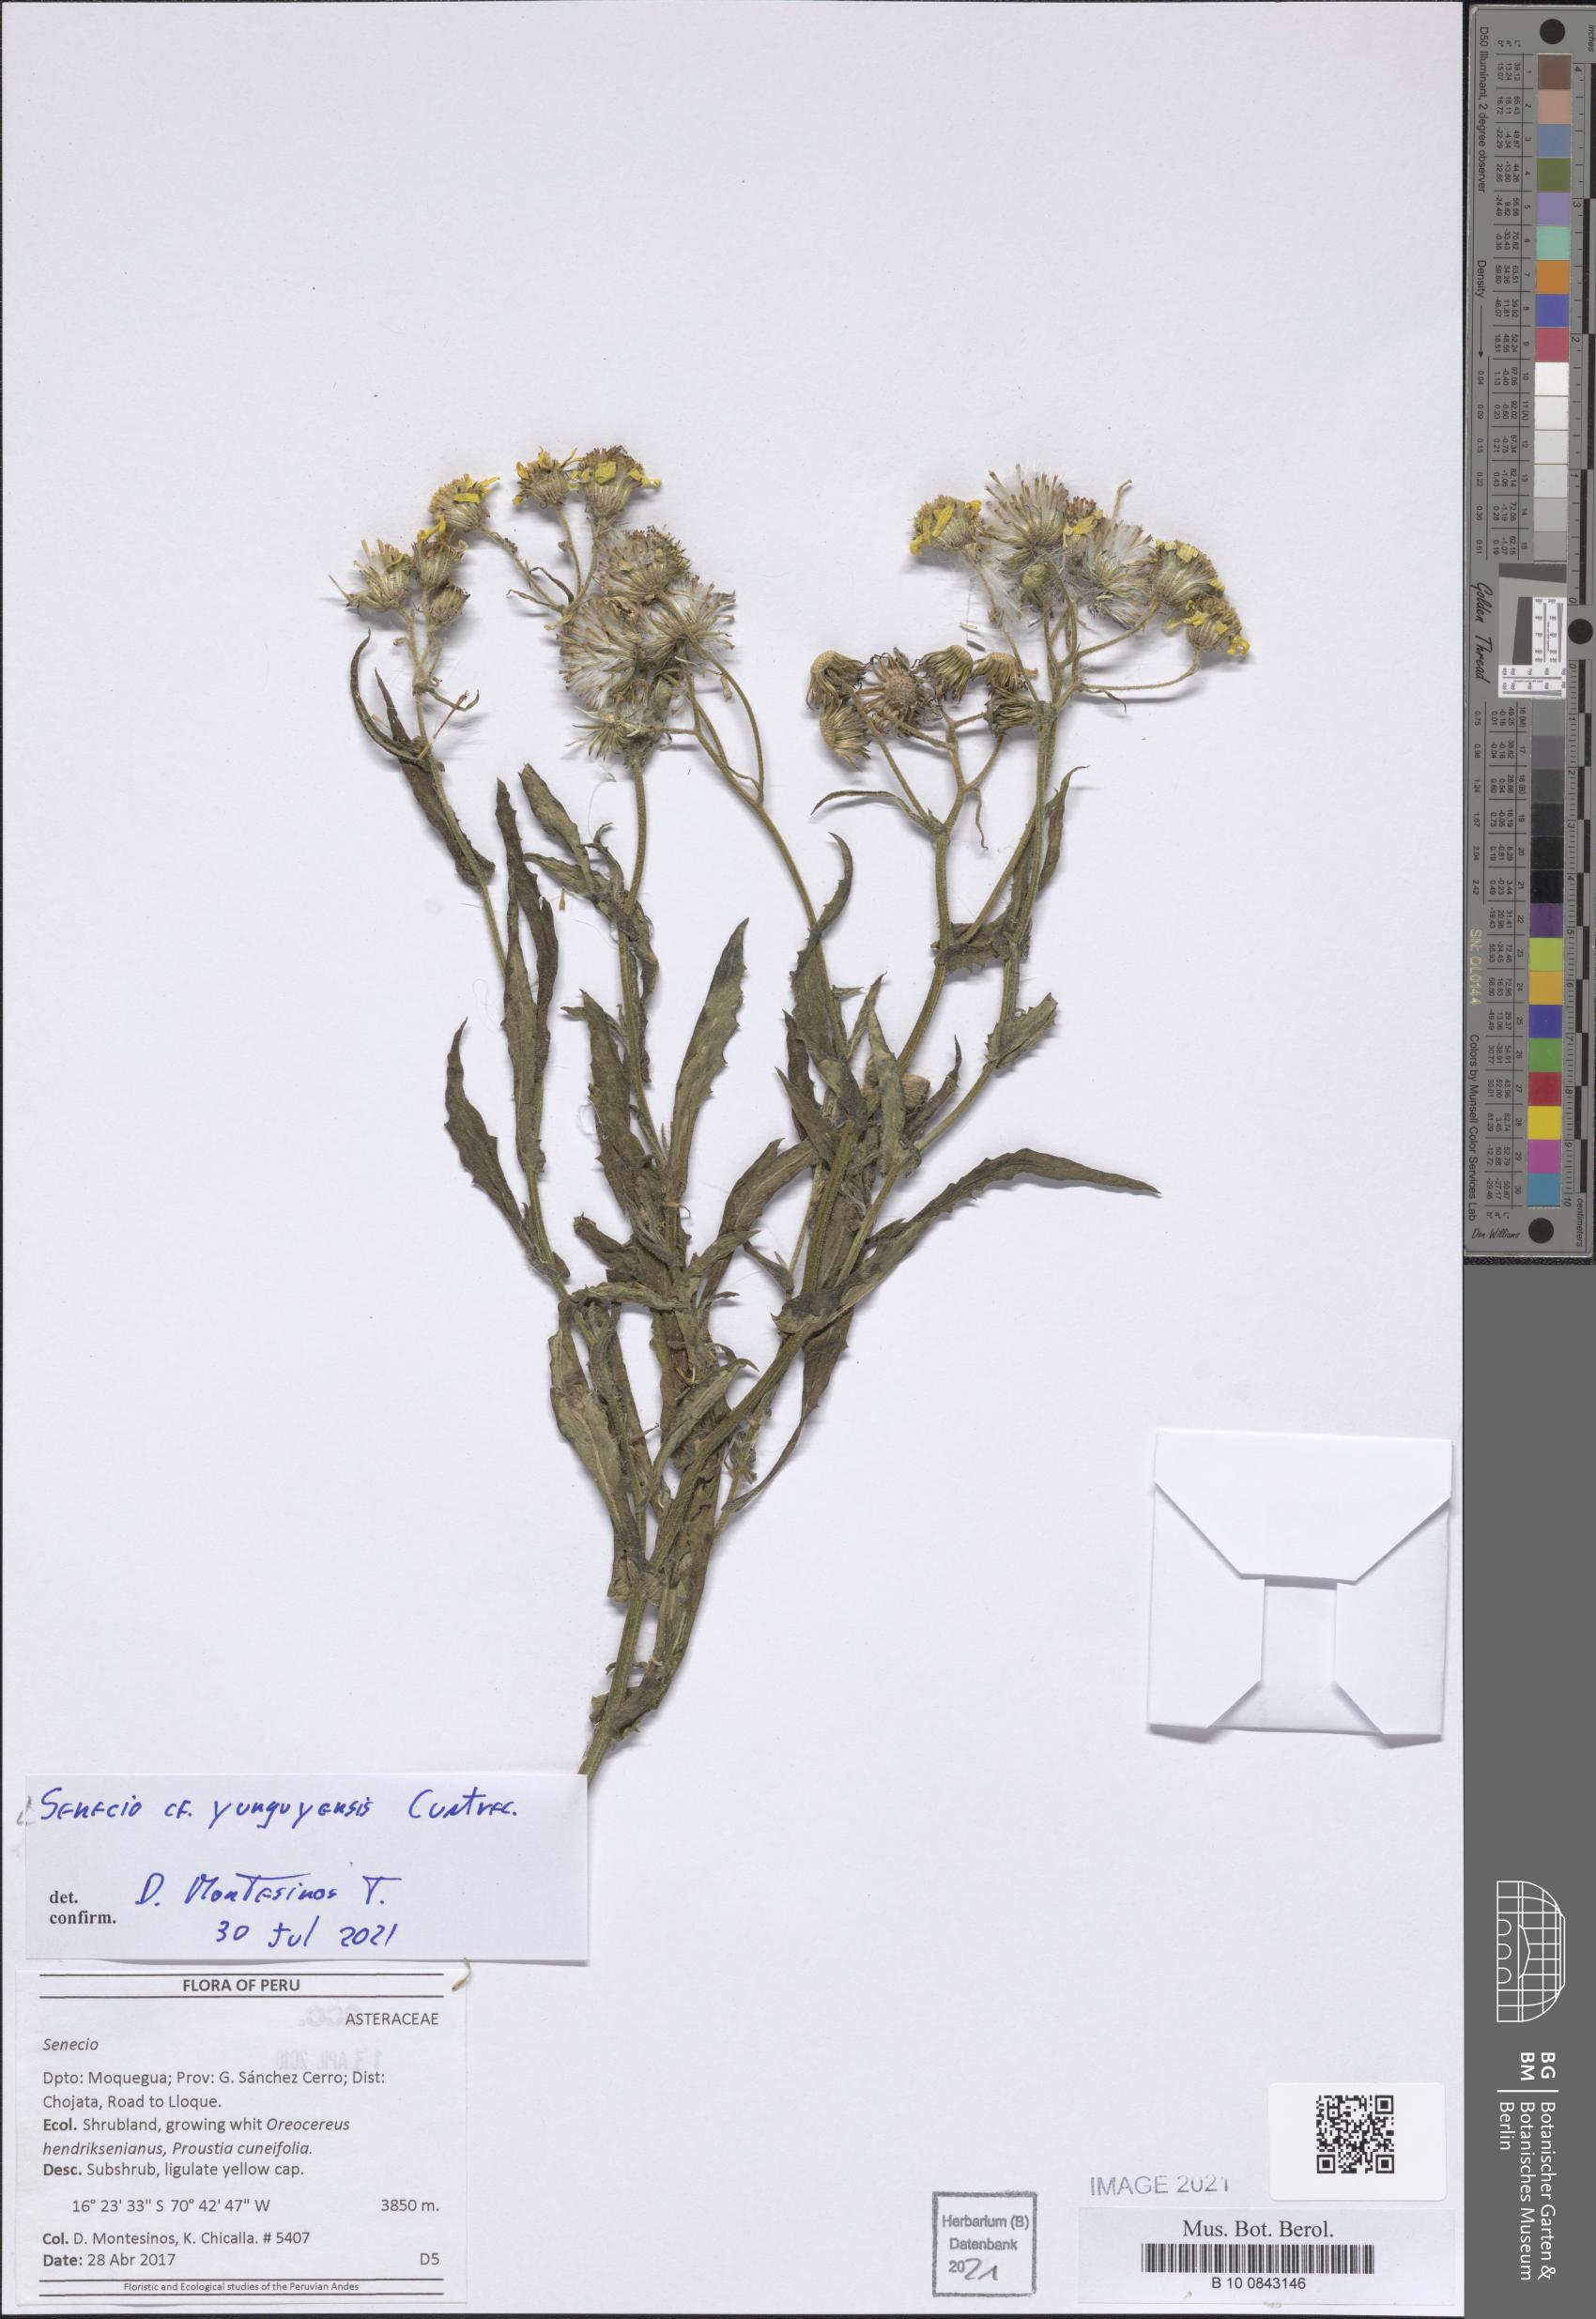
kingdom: Plantae
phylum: Tracheophyta
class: Magnoliopsida
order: Asterales
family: Asteraceae
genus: Senecio
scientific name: Senecio yunguyensis
